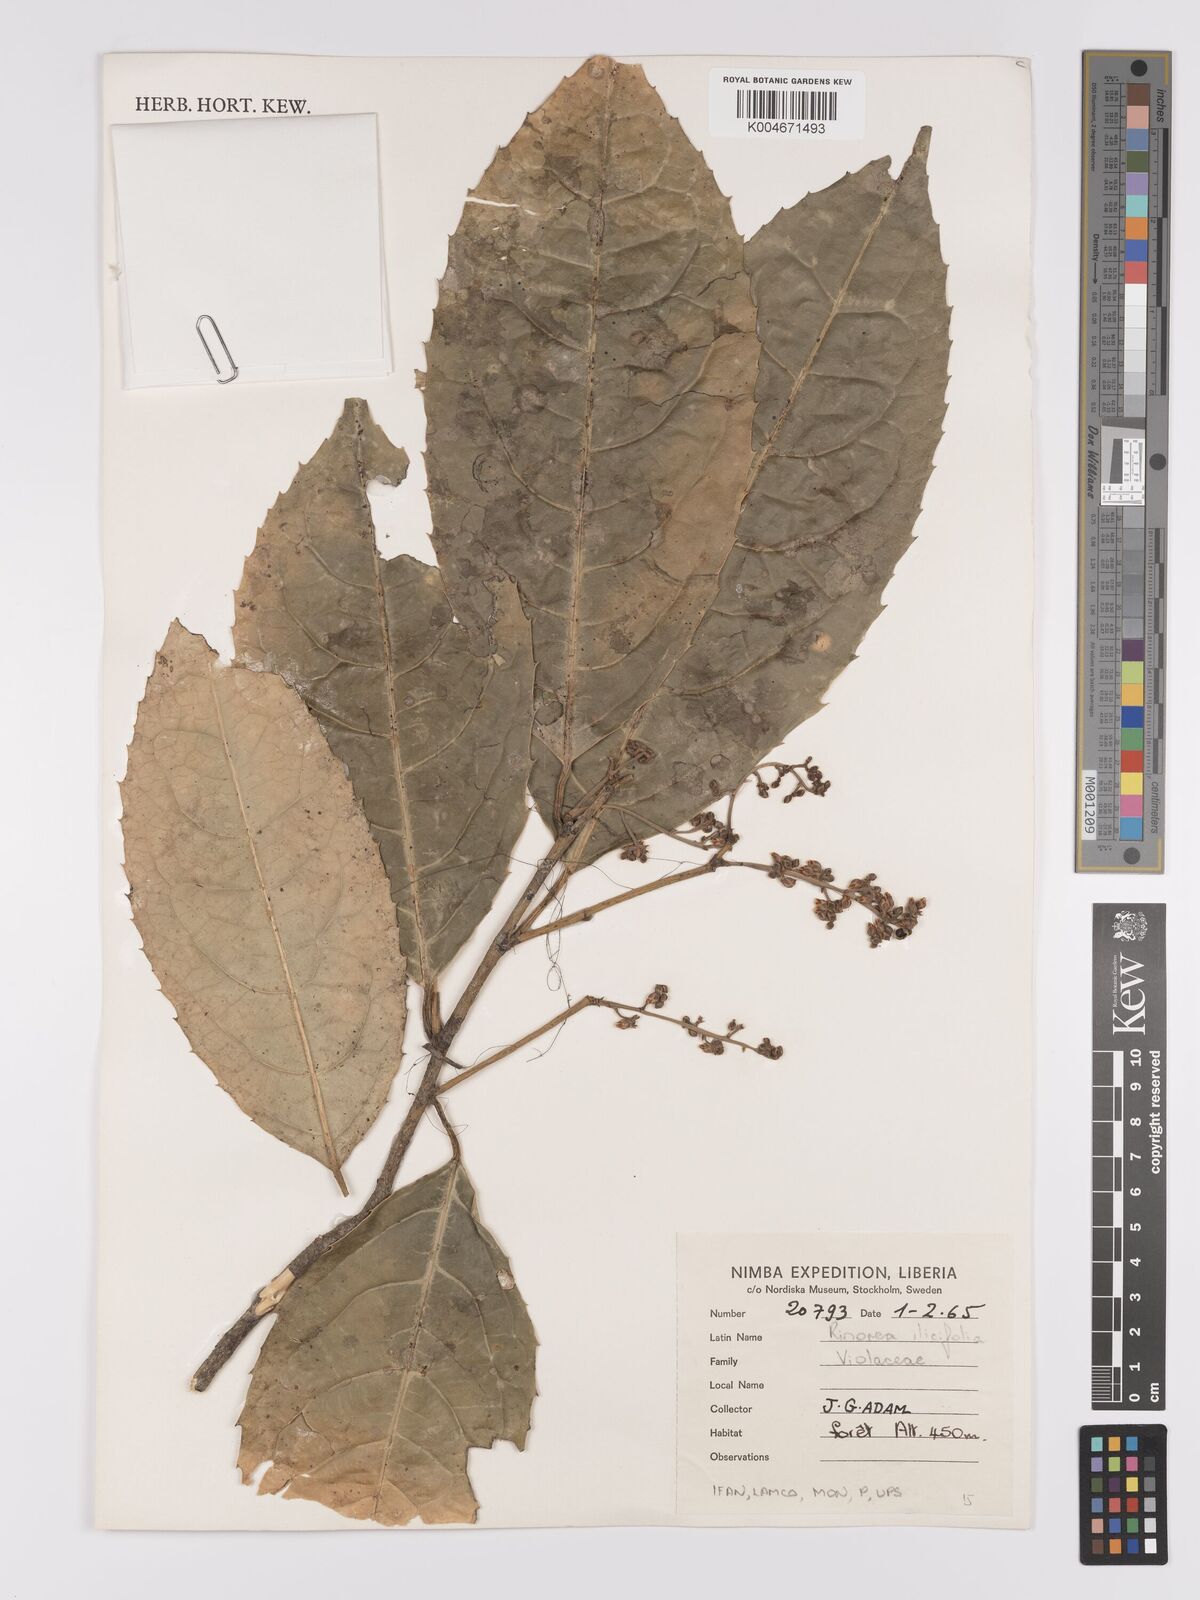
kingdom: Plantae
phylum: Tracheophyta
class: Magnoliopsida
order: Malpighiales
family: Violaceae
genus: Rinorea
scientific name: Rinorea ilicifolia
